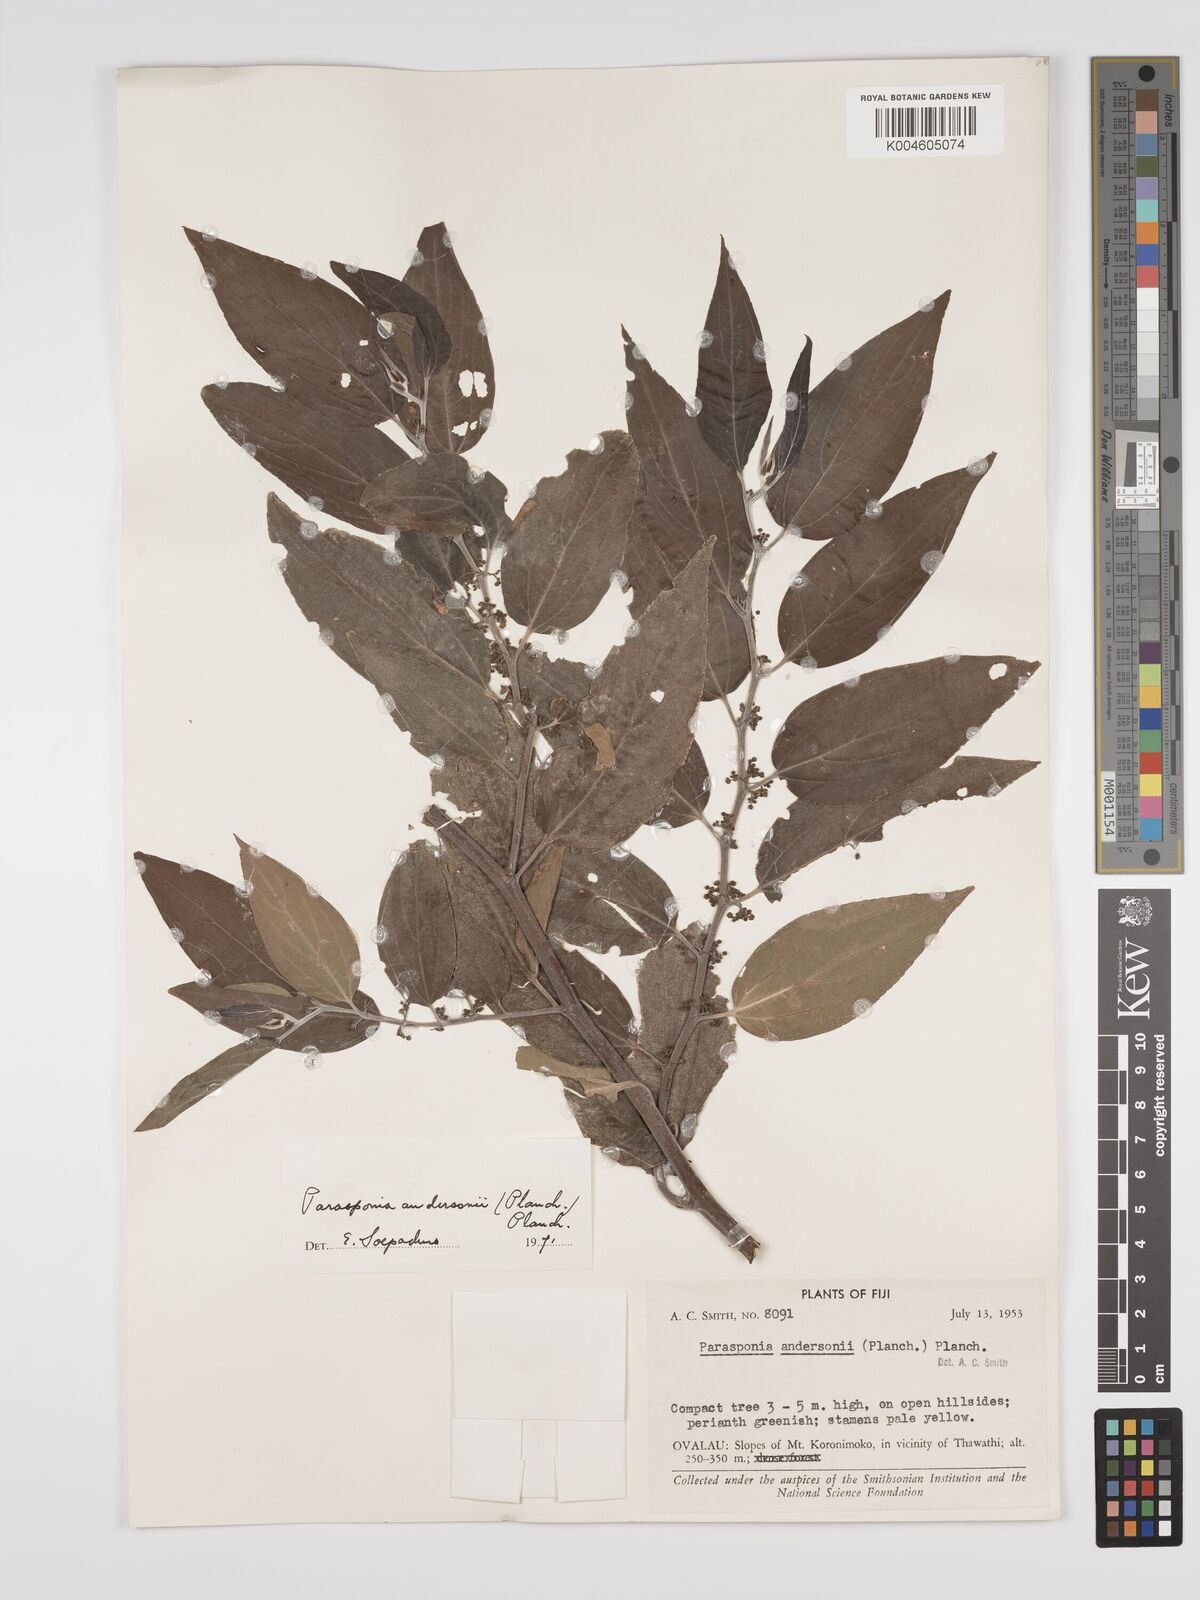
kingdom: Plantae
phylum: Tracheophyta
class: Magnoliopsida
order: Rosales
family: Cannabaceae
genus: Trema
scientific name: Trema andersonii
